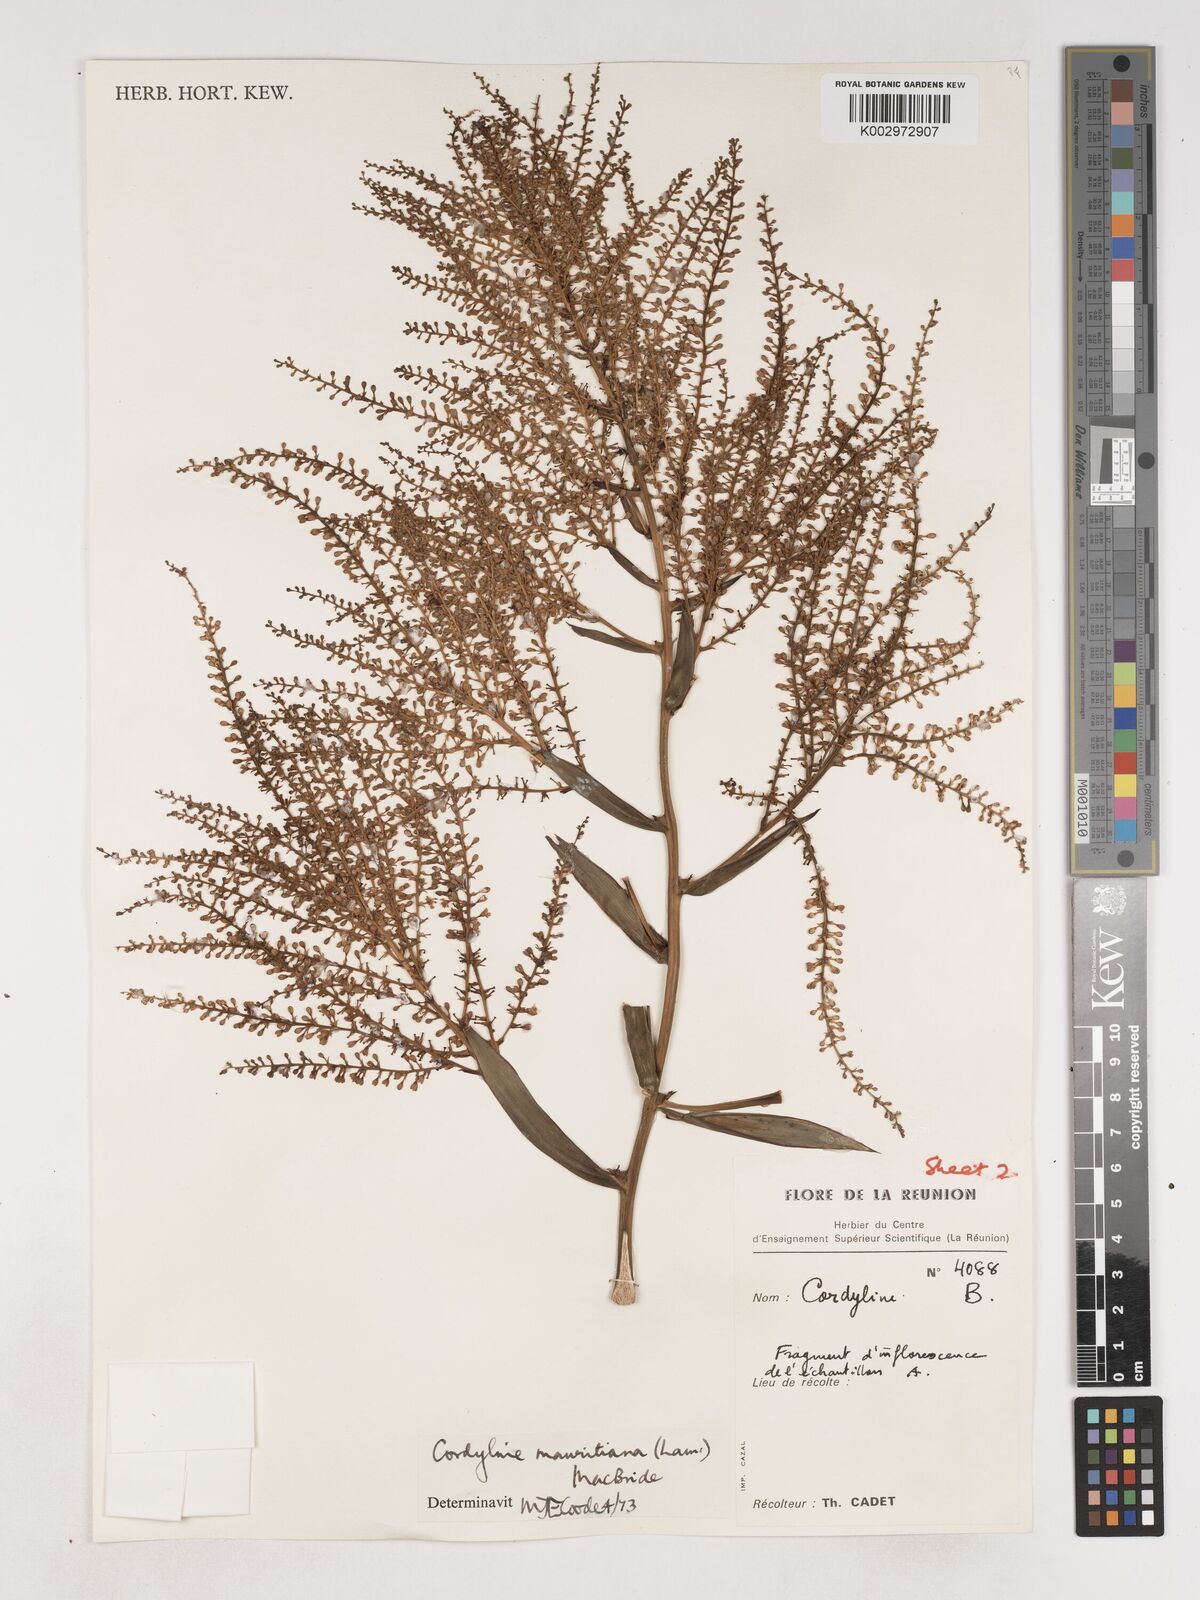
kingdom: Plantae
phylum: Tracheophyta
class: Liliopsida
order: Asparagales
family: Asparagaceae
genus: Cordyline
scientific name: Cordyline mauritiana
